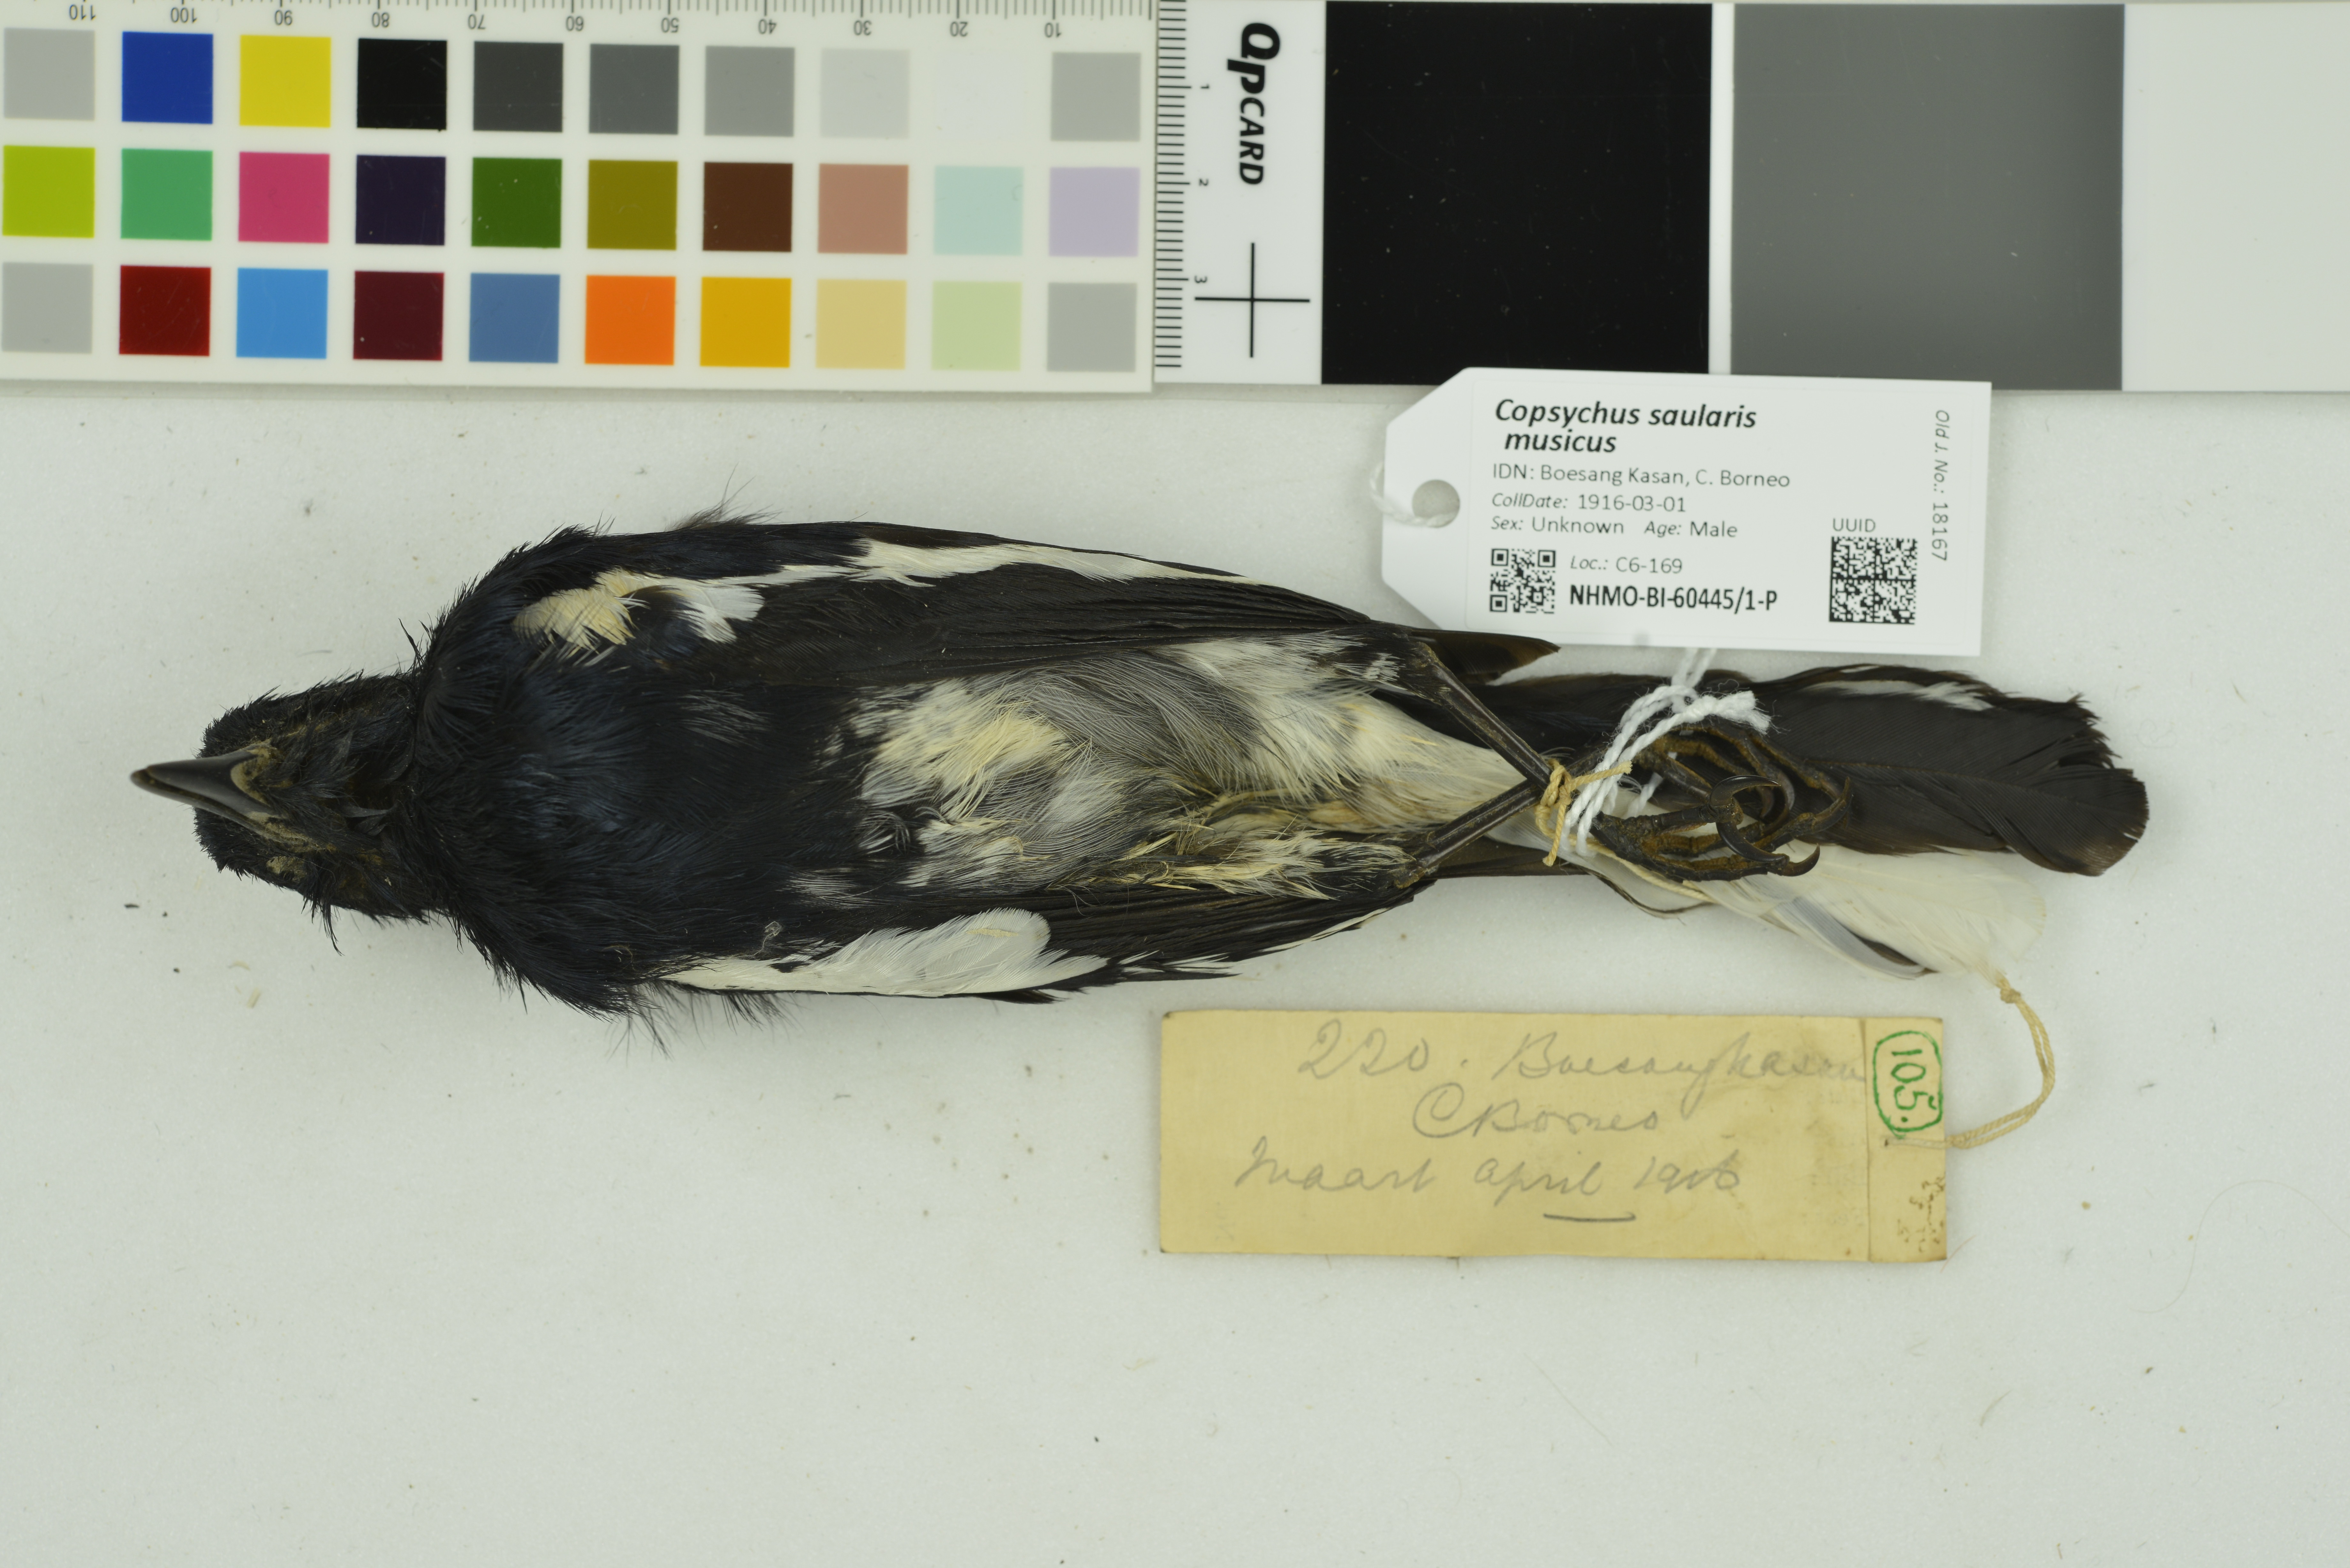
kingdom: Animalia
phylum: Chordata
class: Aves
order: Passeriformes
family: Muscicapidae
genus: Copsychus
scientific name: Copsychus saularis
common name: Oriental magpie-robin
